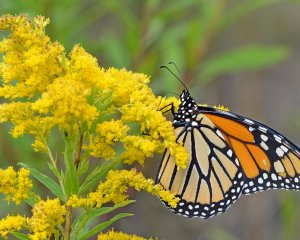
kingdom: Animalia
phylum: Arthropoda
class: Insecta
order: Lepidoptera
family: Nymphalidae
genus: Danaus
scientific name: Danaus plexippus
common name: Monarch
